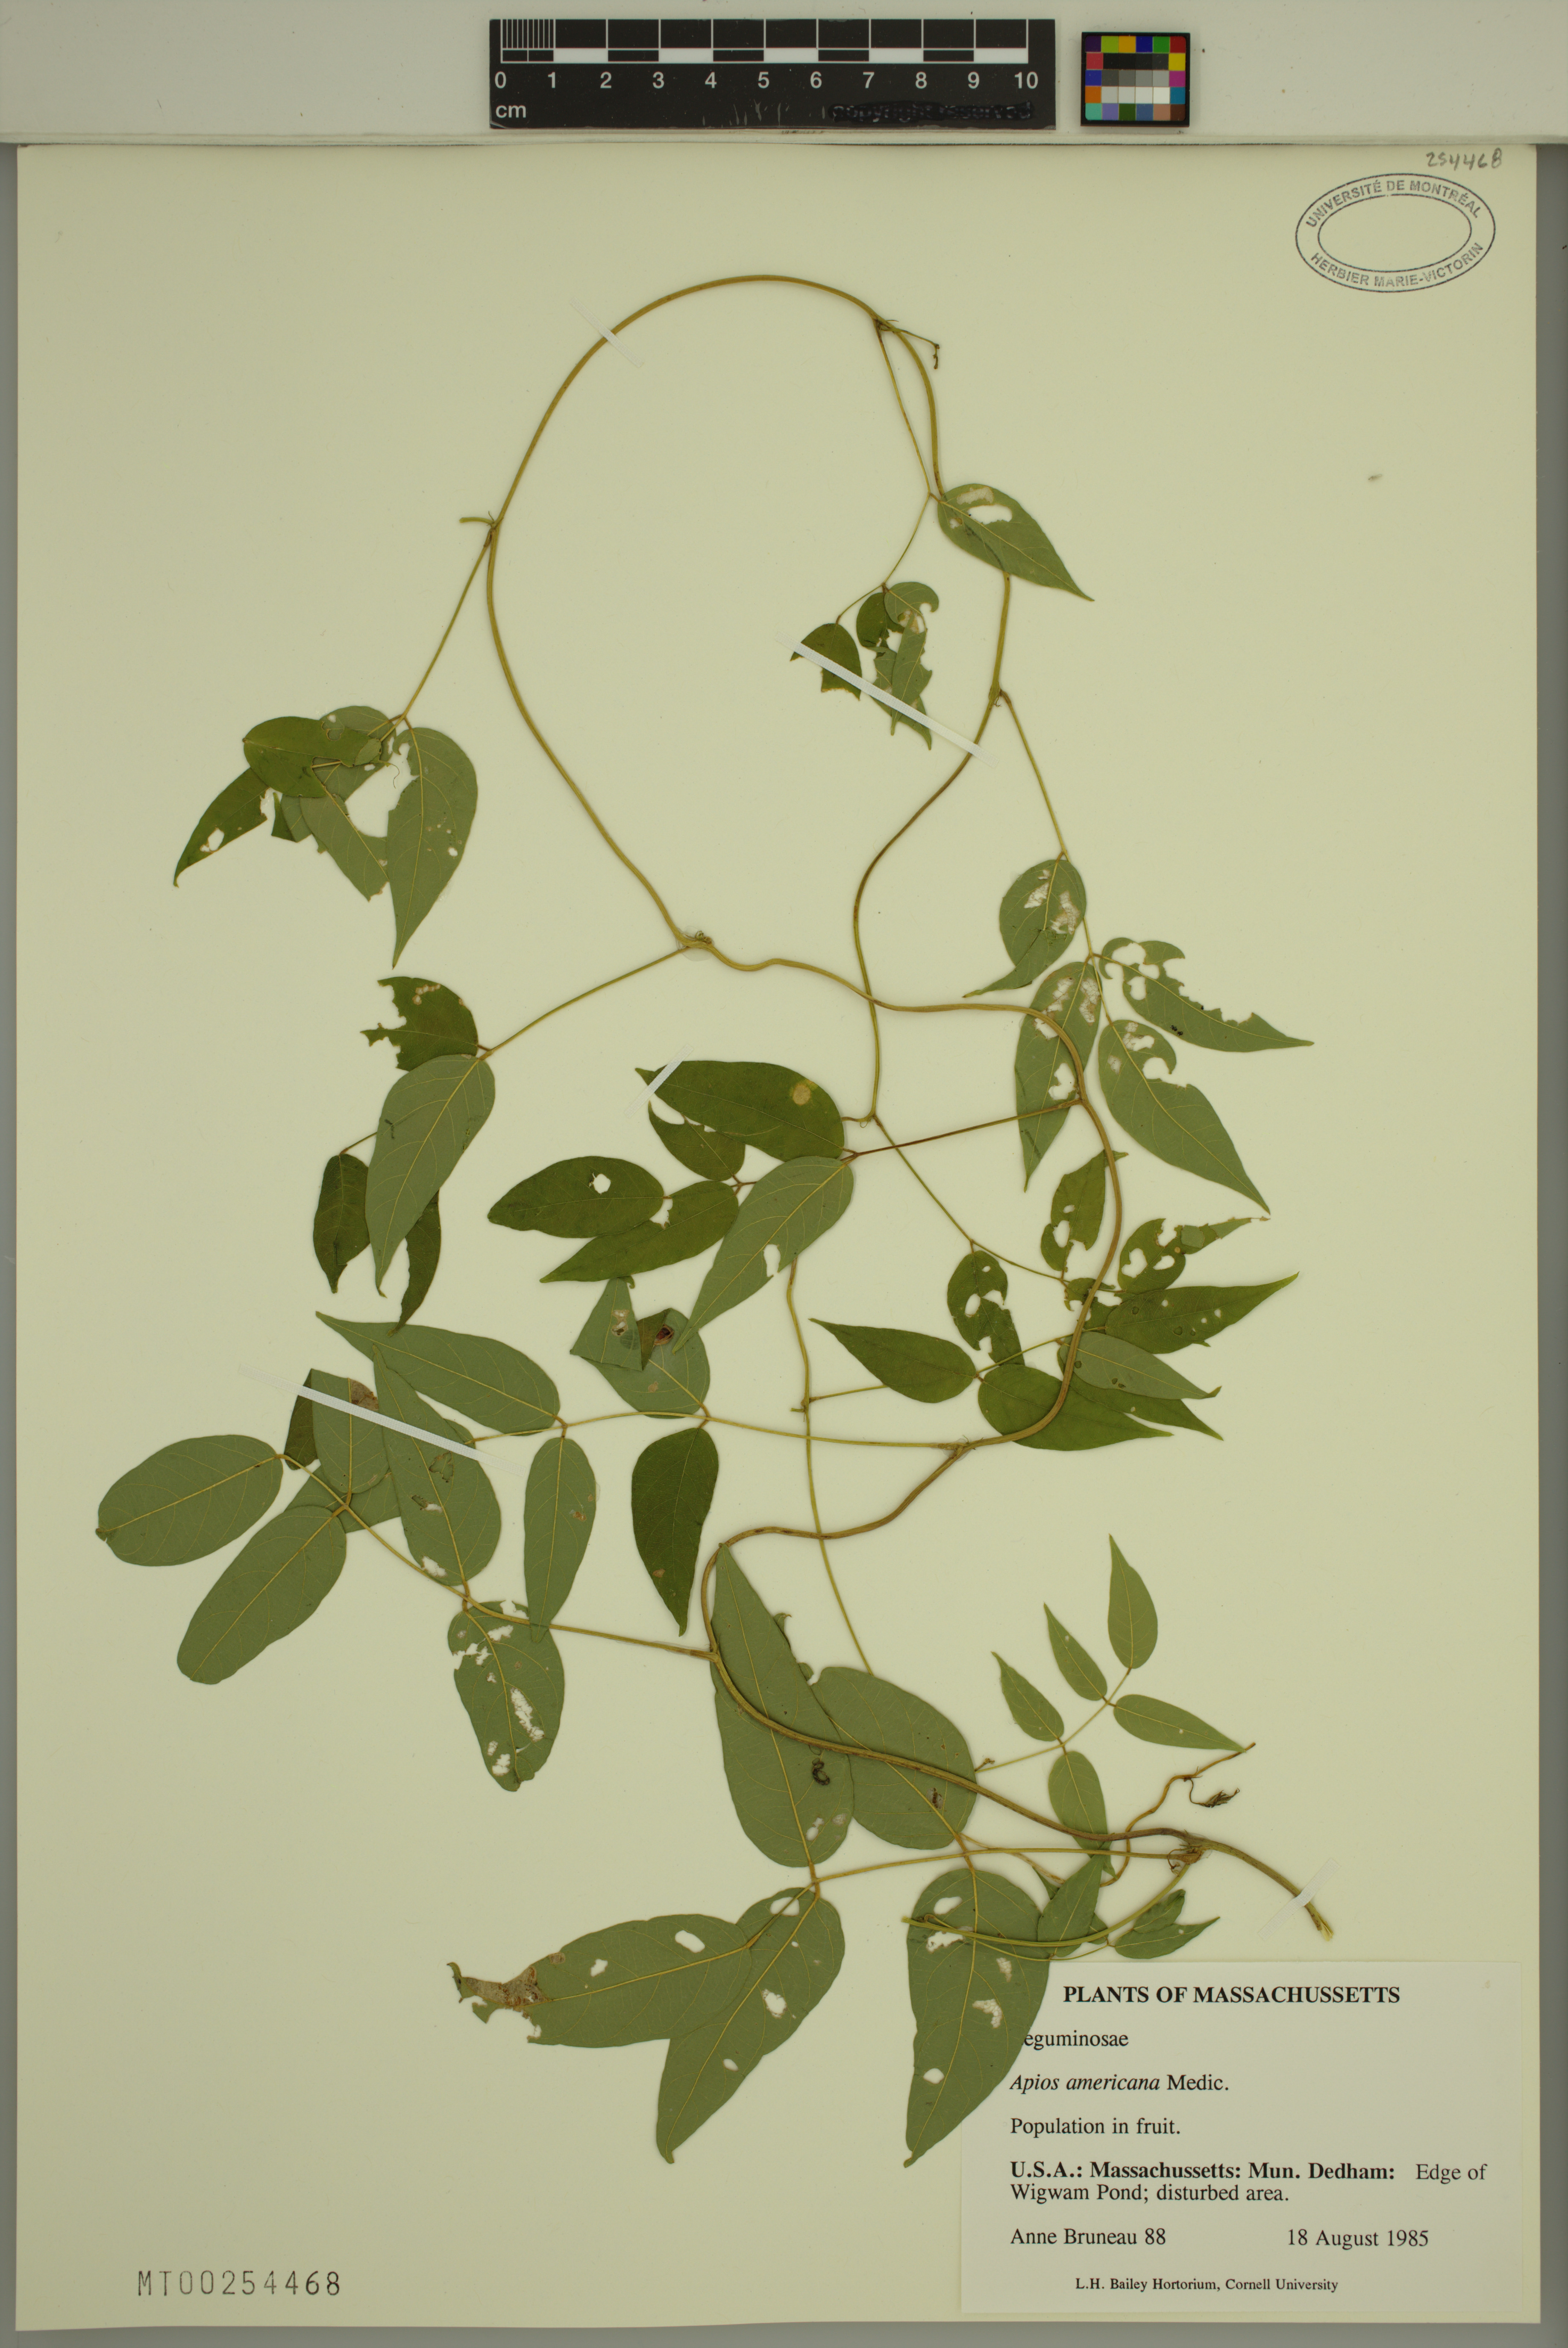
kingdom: Plantae
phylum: Tracheophyta
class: Magnoliopsida
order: Fabales
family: Fabaceae
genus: Apios
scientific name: Apios americana
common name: American potato-bean
